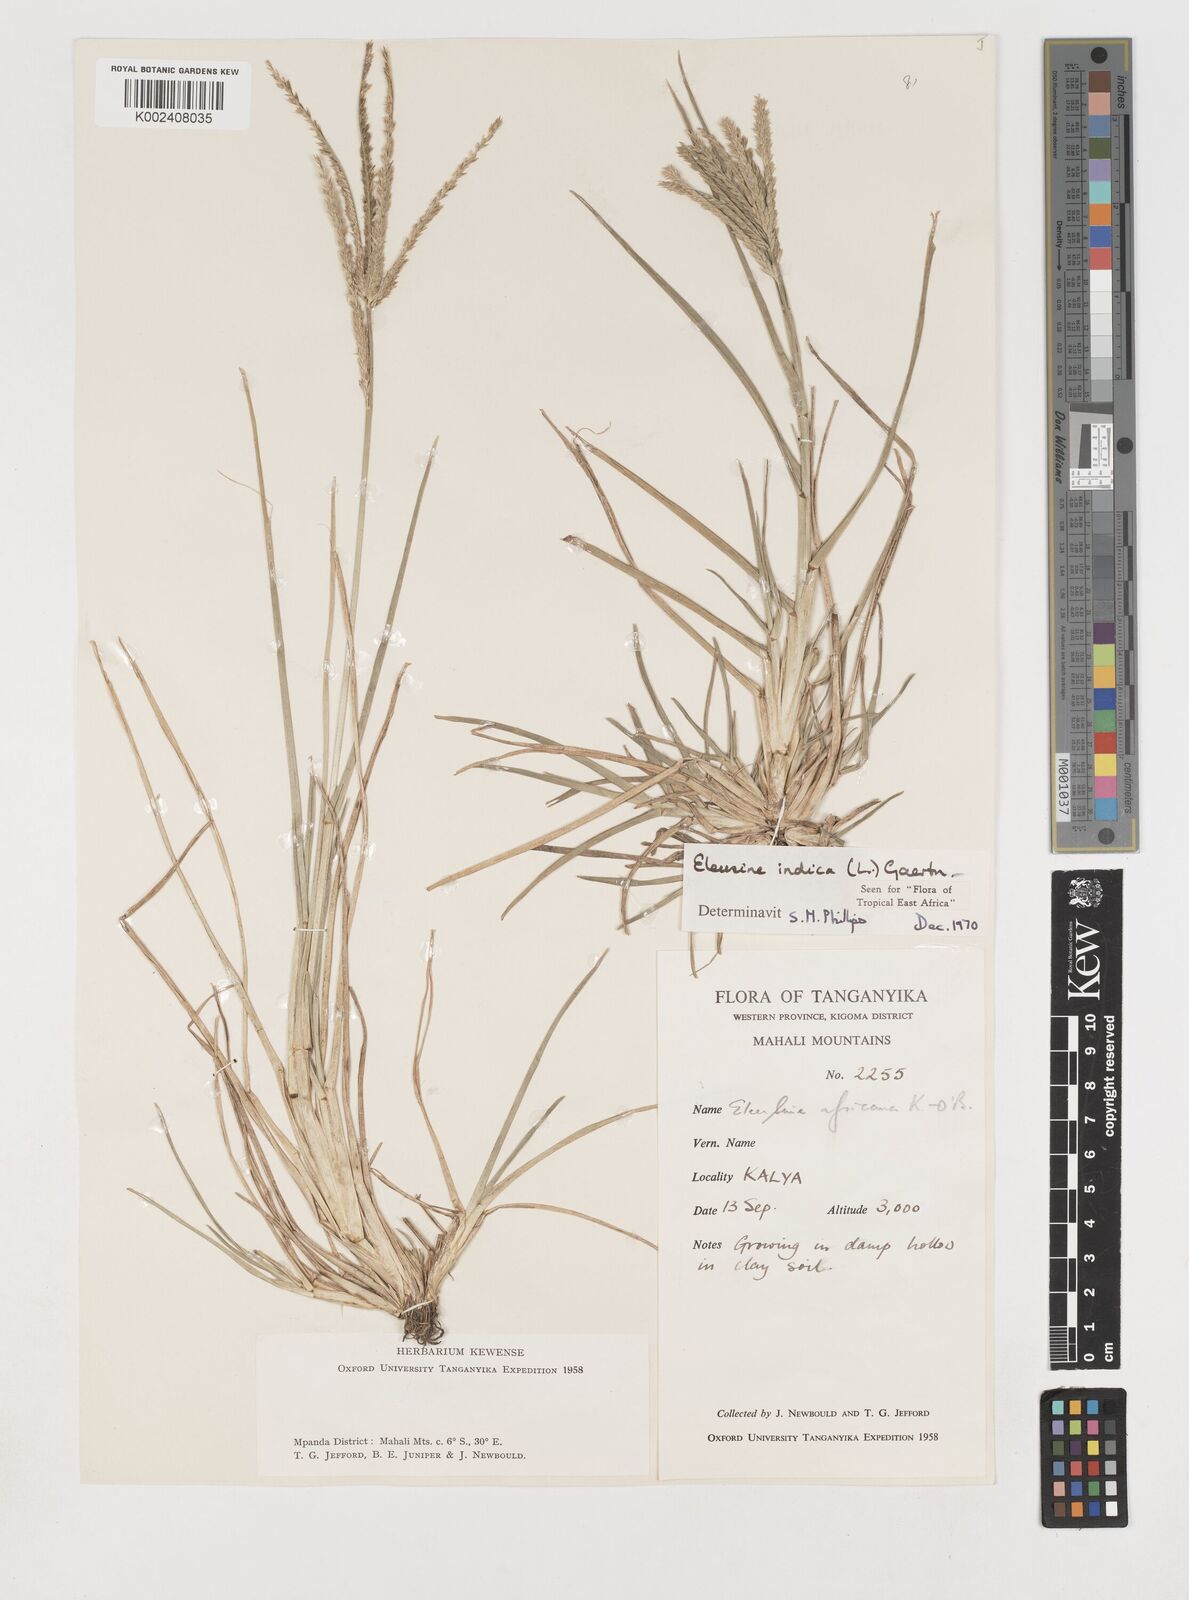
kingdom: Plantae
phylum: Tracheophyta
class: Liliopsida
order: Poales
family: Poaceae
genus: Eleusine
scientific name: Eleusine indica
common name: Yard-grass
